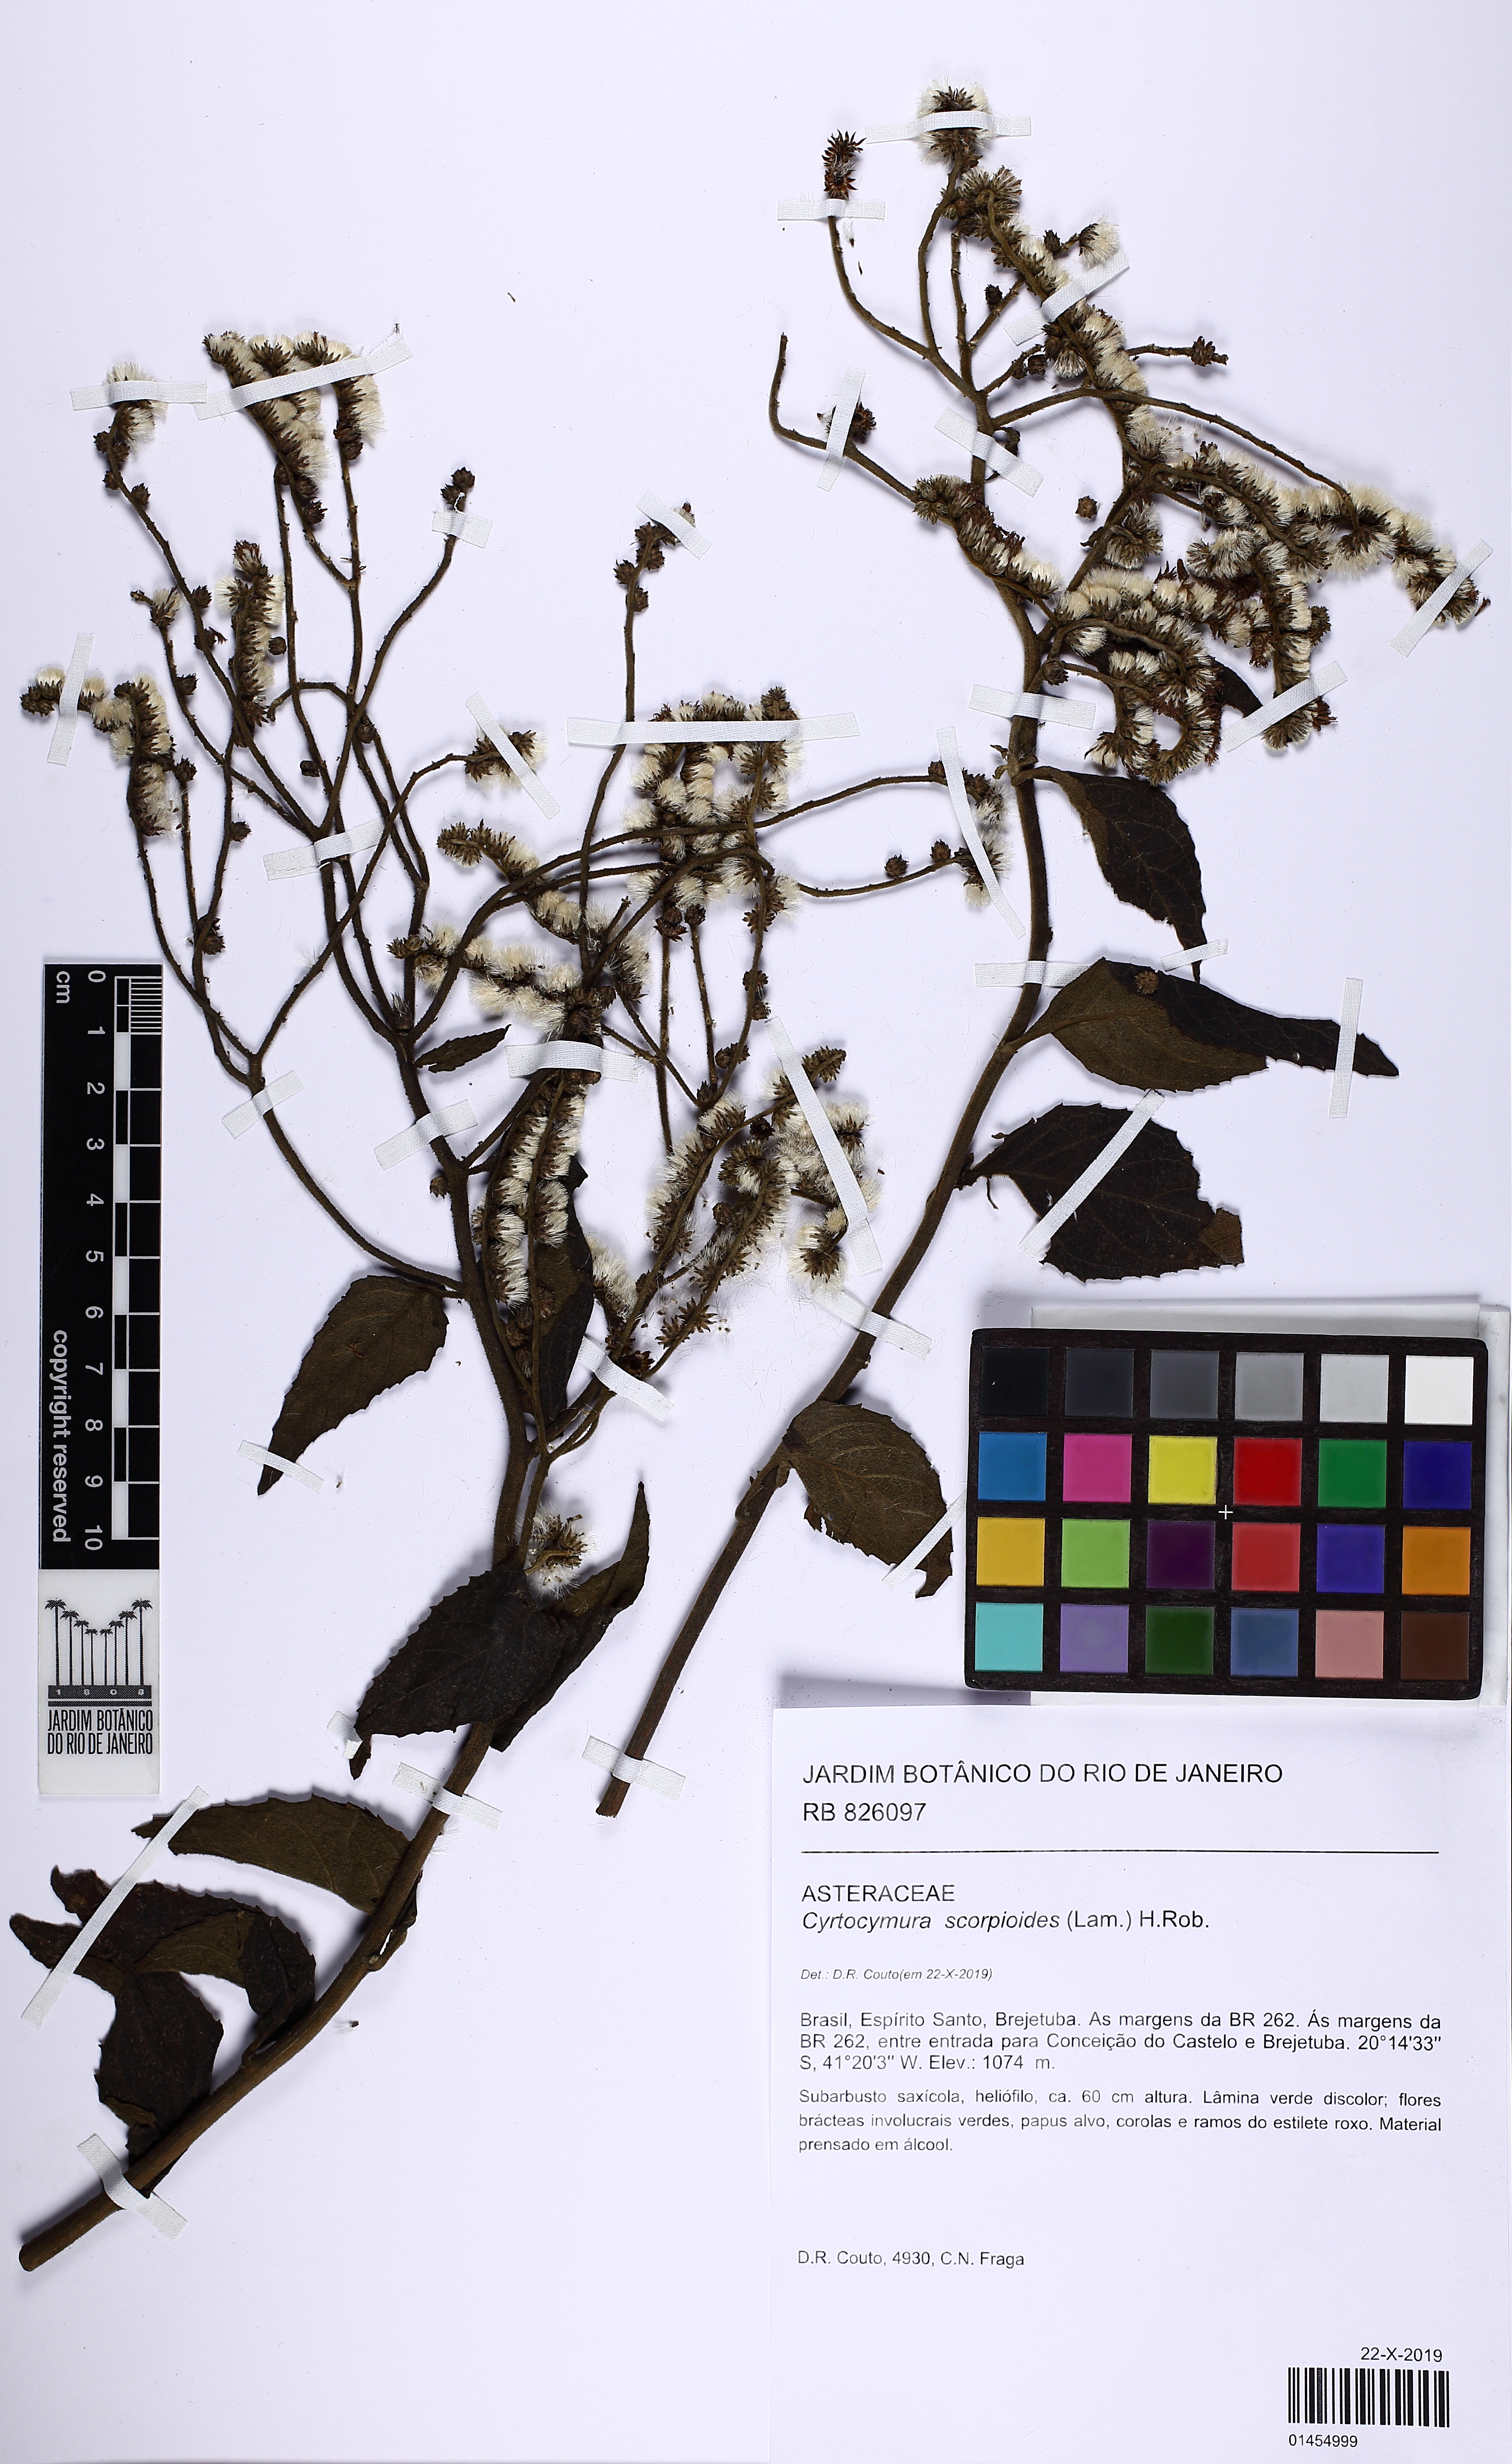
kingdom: Plantae
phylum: Tracheophyta
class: Magnoliopsida
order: Asterales
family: Asteraceae
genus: Cyrtocymura
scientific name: Cyrtocymura scorpioides
